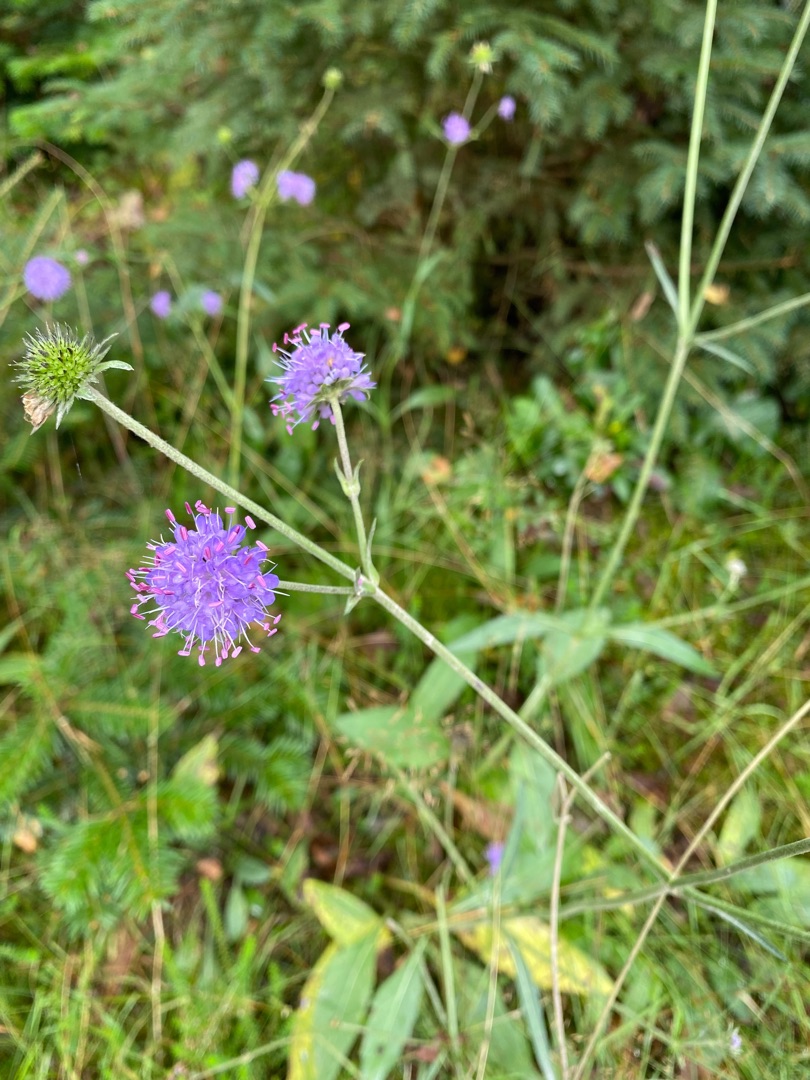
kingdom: Plantae
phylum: Tracheophyta
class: Magnoliopsida
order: Dipsacales
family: Caprifoliaceae
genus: Succisa
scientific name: Succisa pratensis
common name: Djævelsbid
